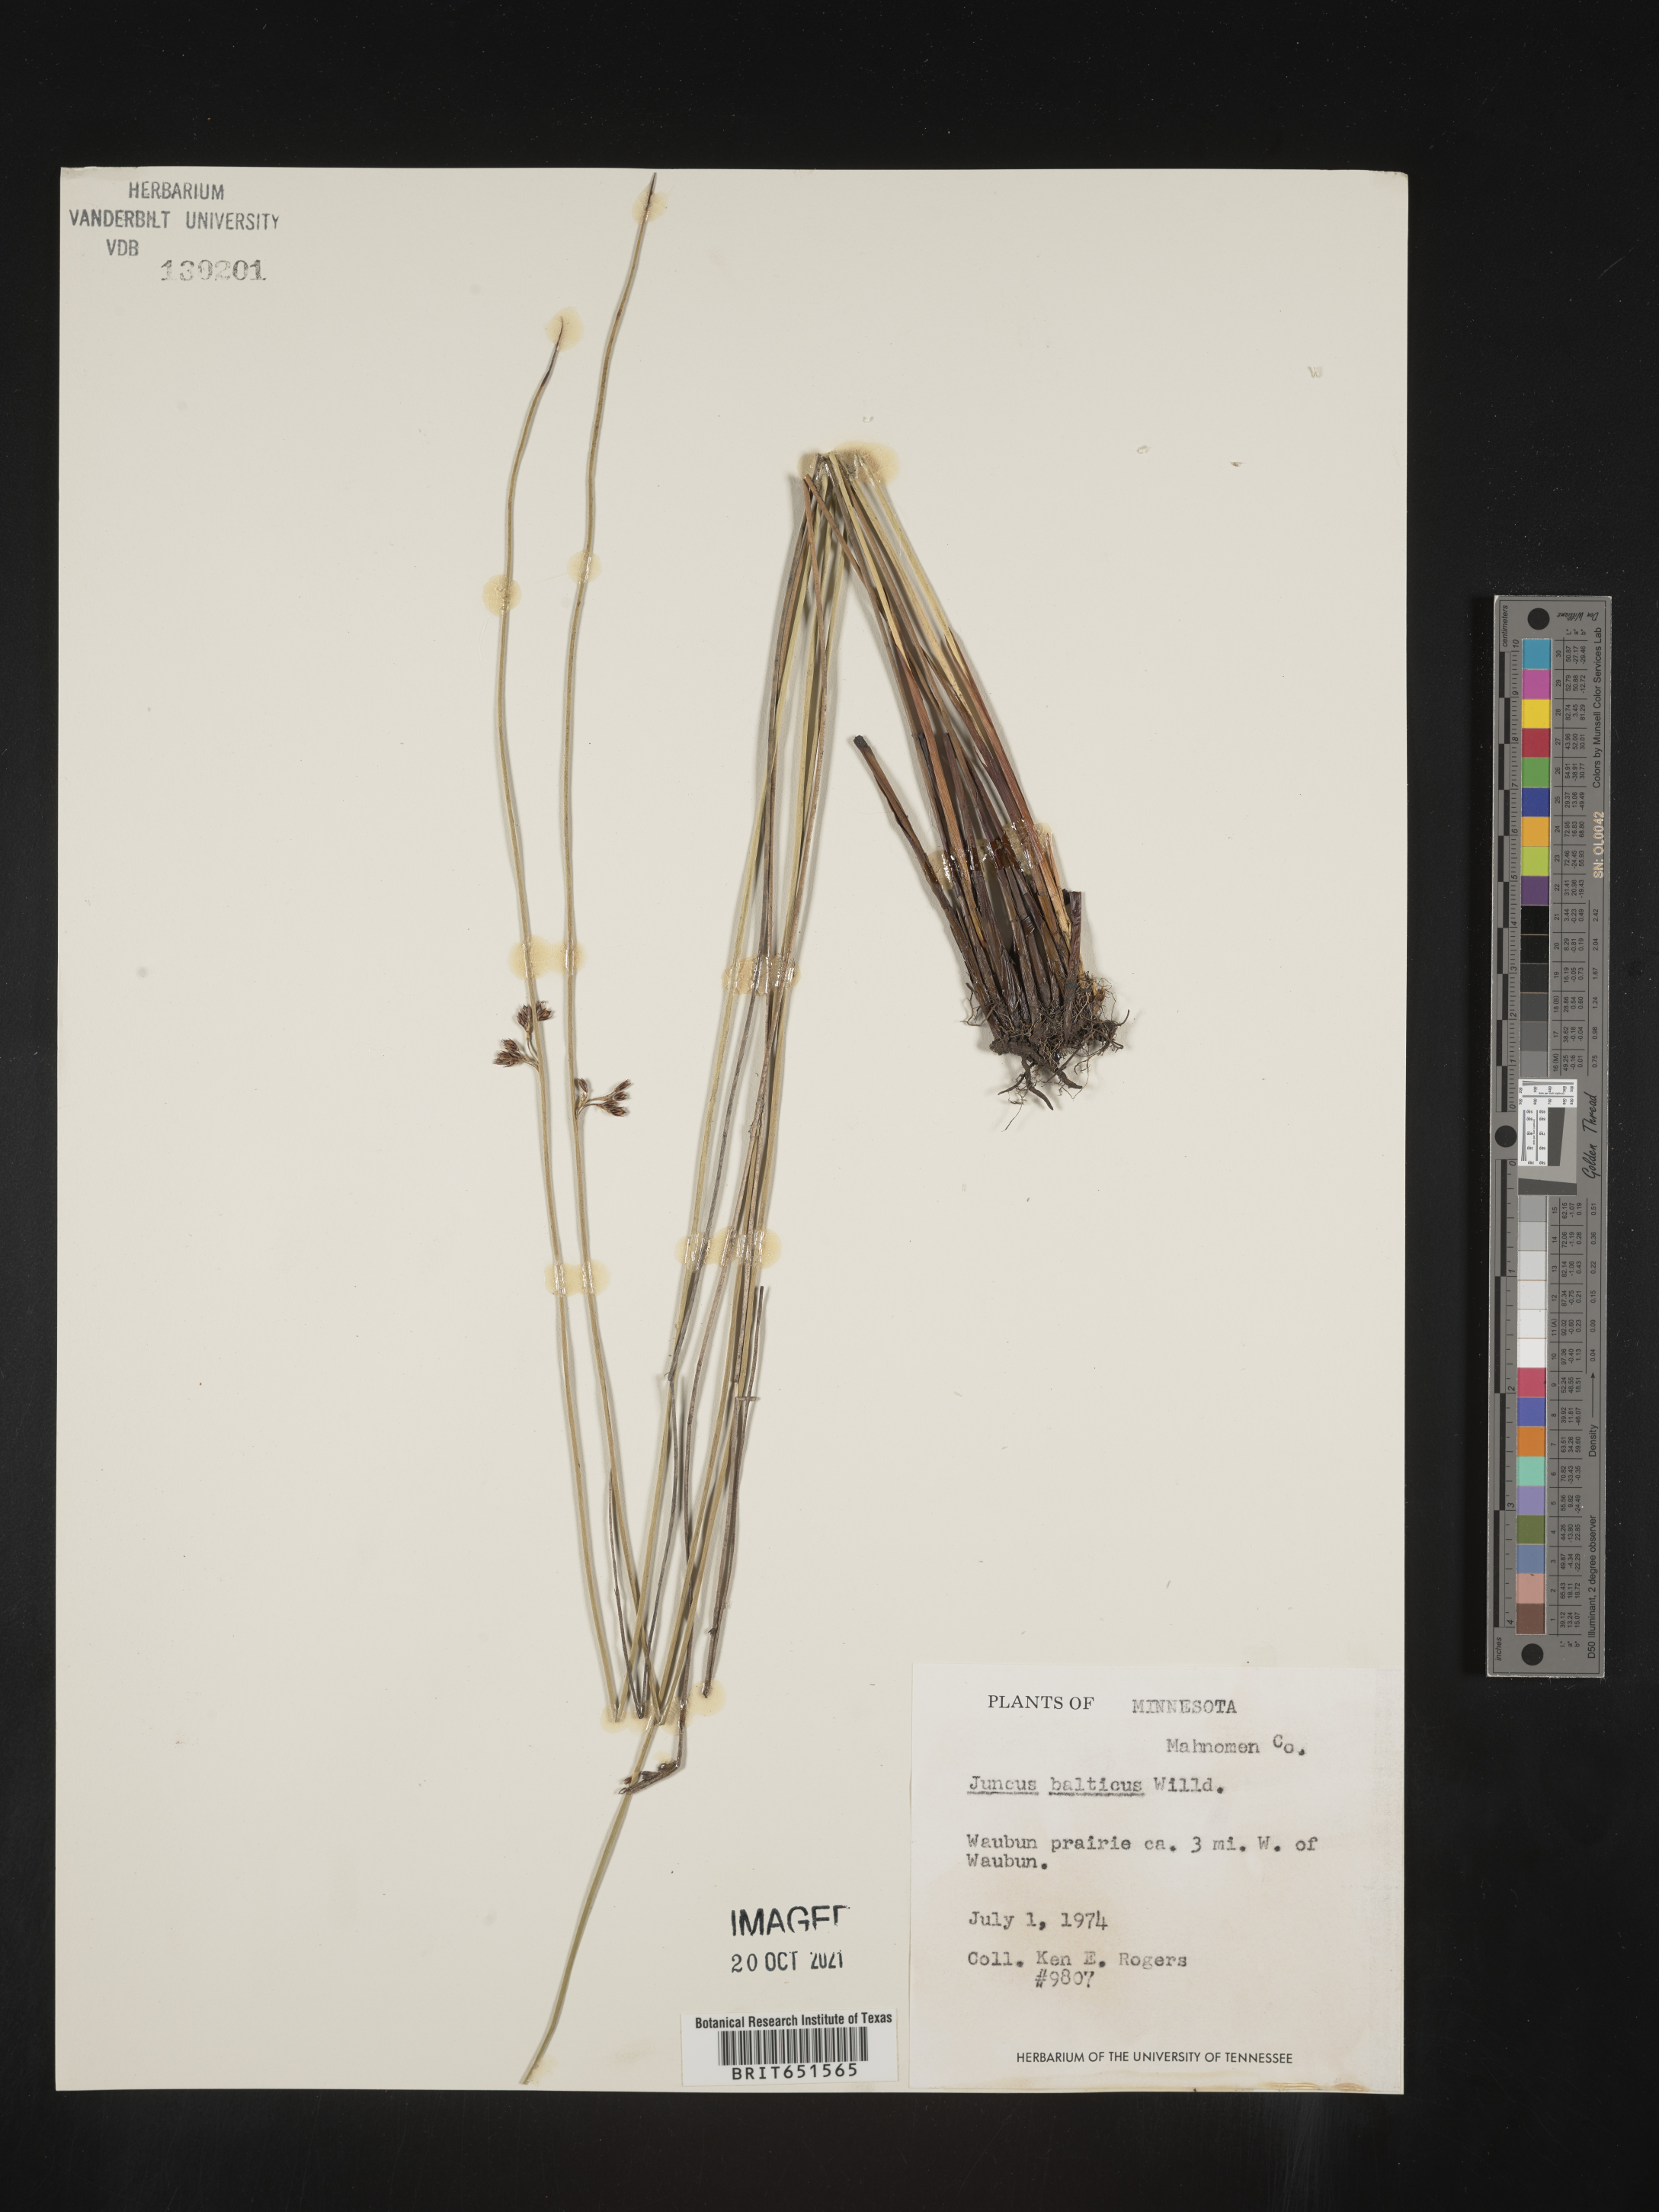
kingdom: Plantae
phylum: Tracheophyta
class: Liliopsida
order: Poales
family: Juncaceae
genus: Juncus
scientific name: Juncus balticus
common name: Baltic rush
